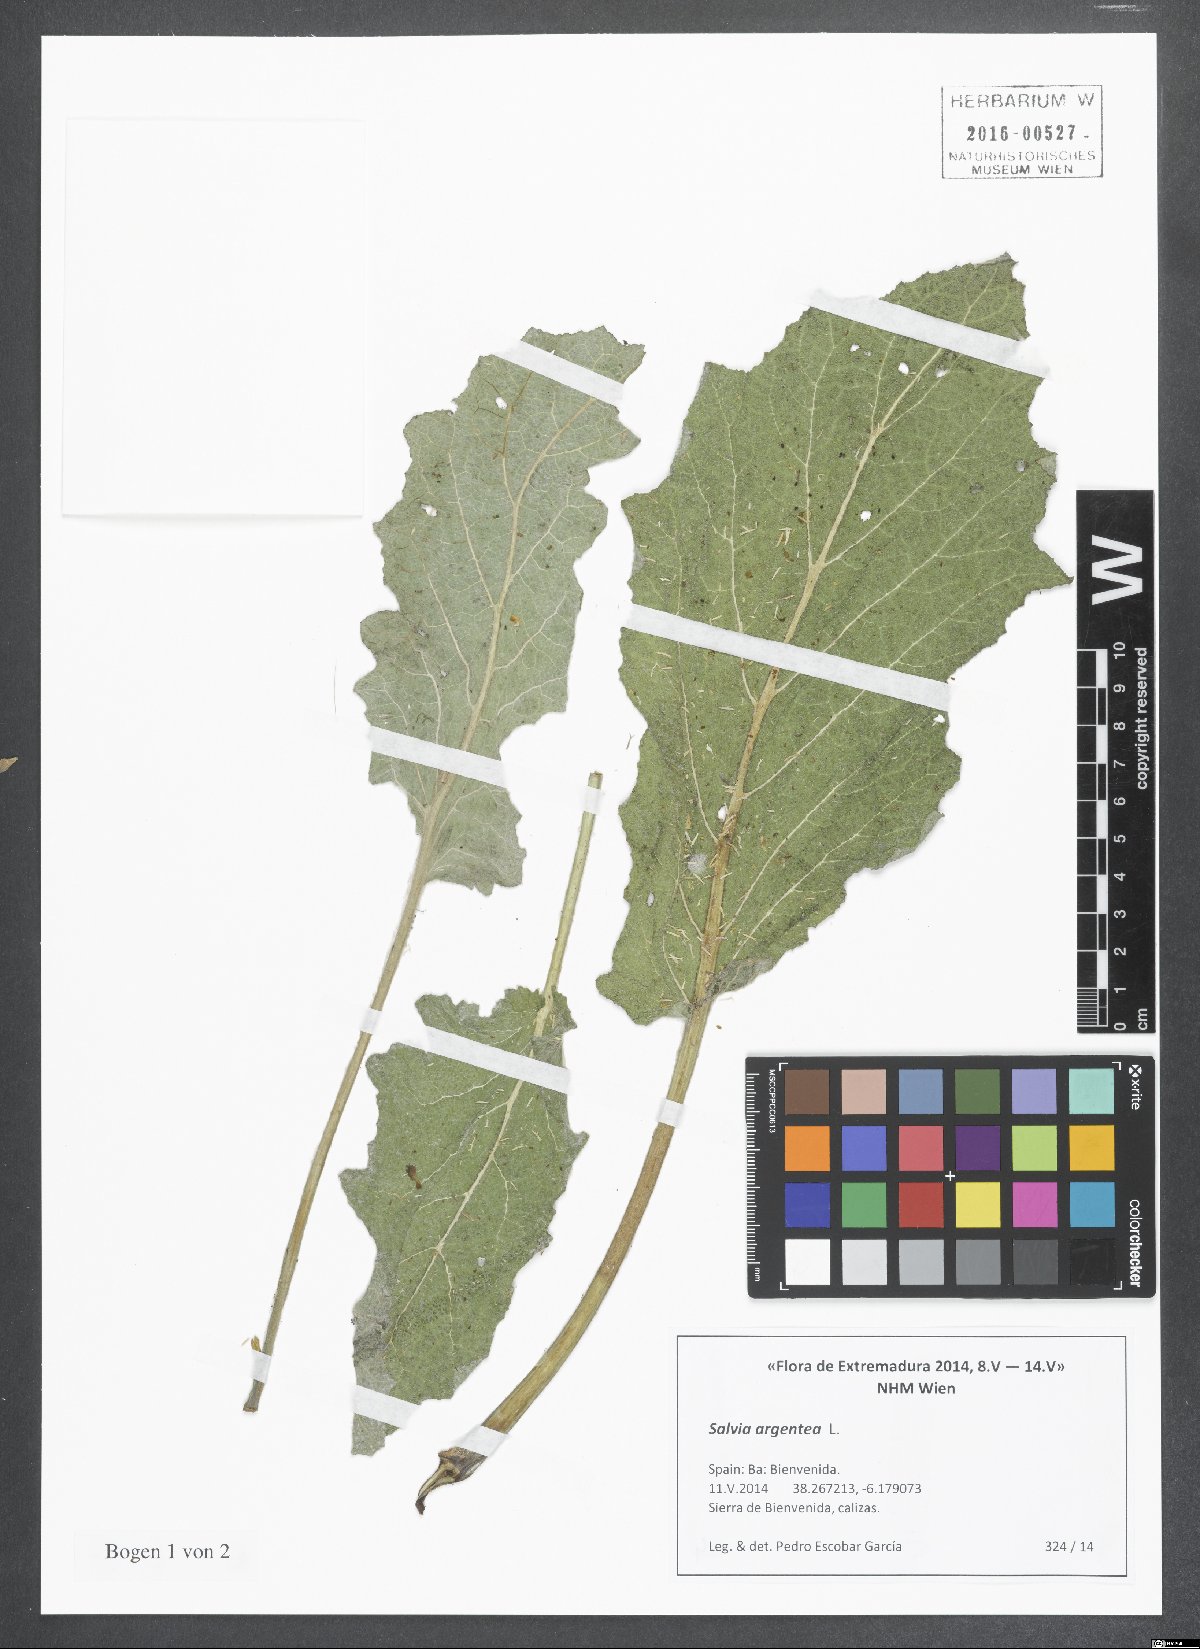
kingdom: Plantae
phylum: Tracheophyta
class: Magnoliopsida
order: Lamiales
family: Lamiaceae
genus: Salvia
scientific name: Salvia argentea
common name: Silver sage
